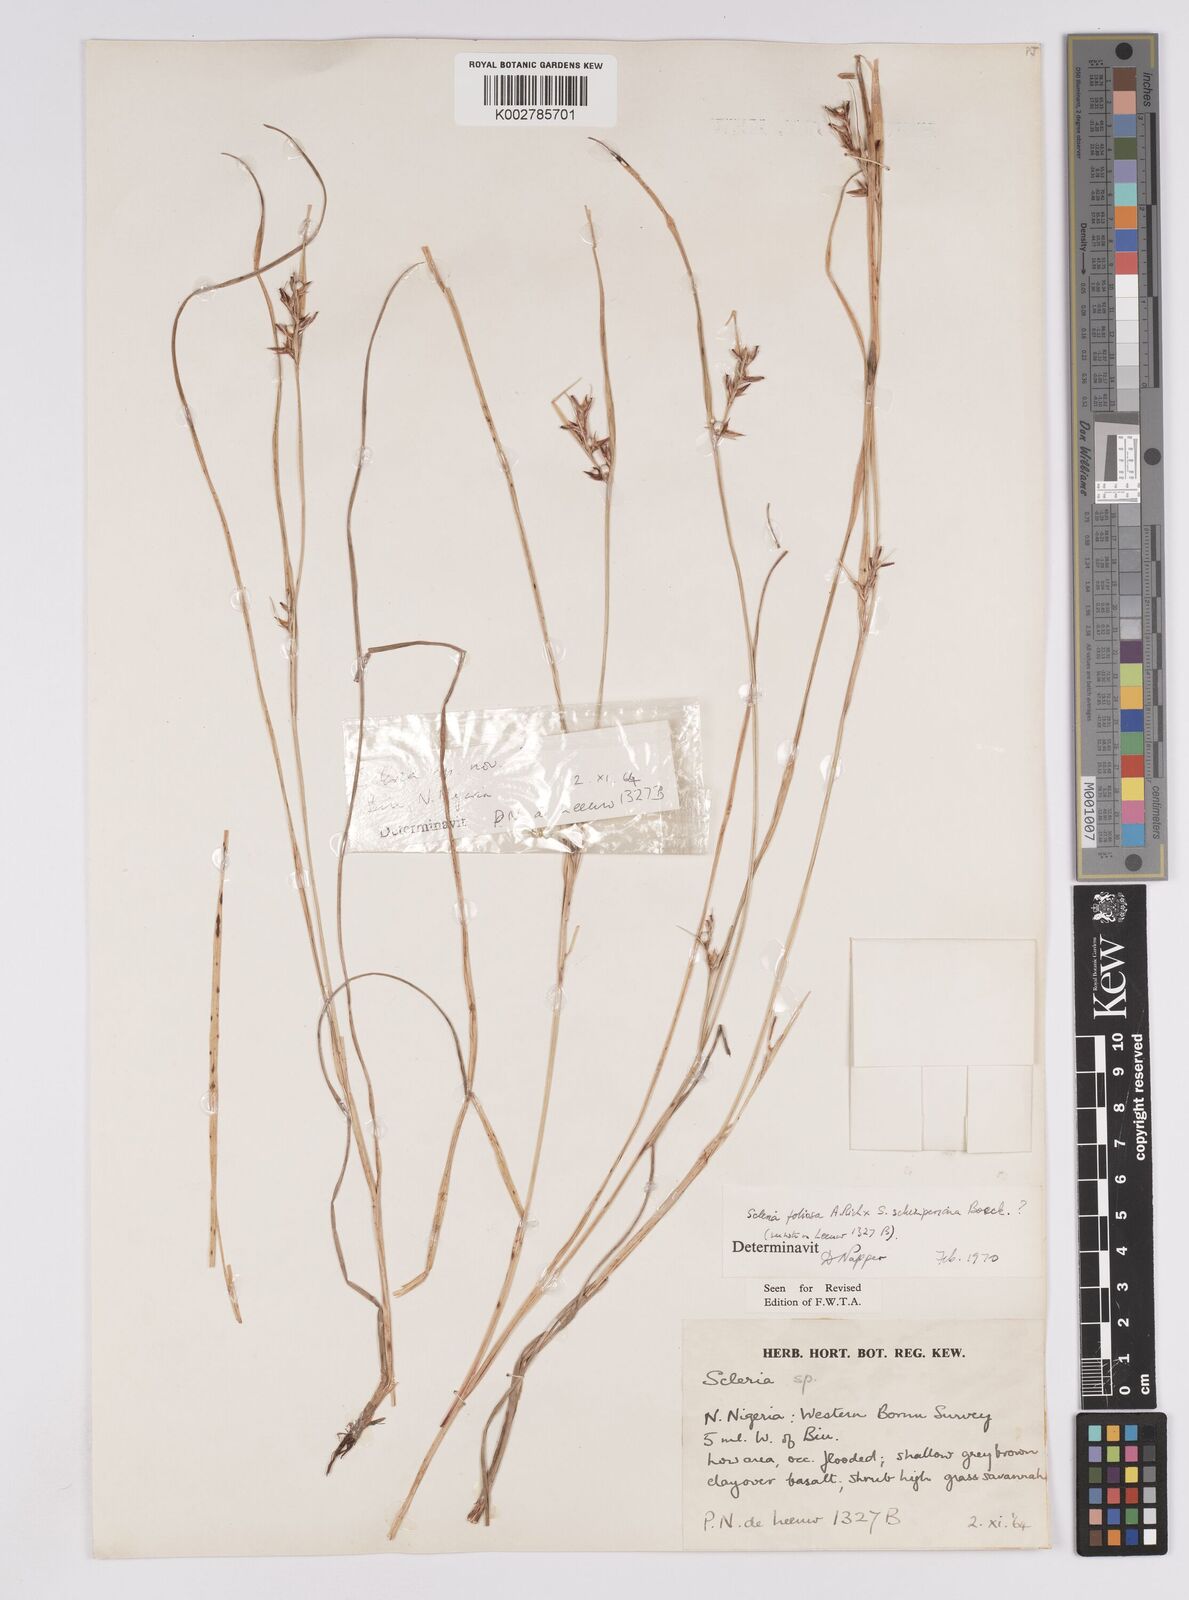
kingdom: Plantae
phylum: Tracheophyta
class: Liliopsida
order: Poales
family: Cyperaceae
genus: Scleria
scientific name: Scleria foliosa
